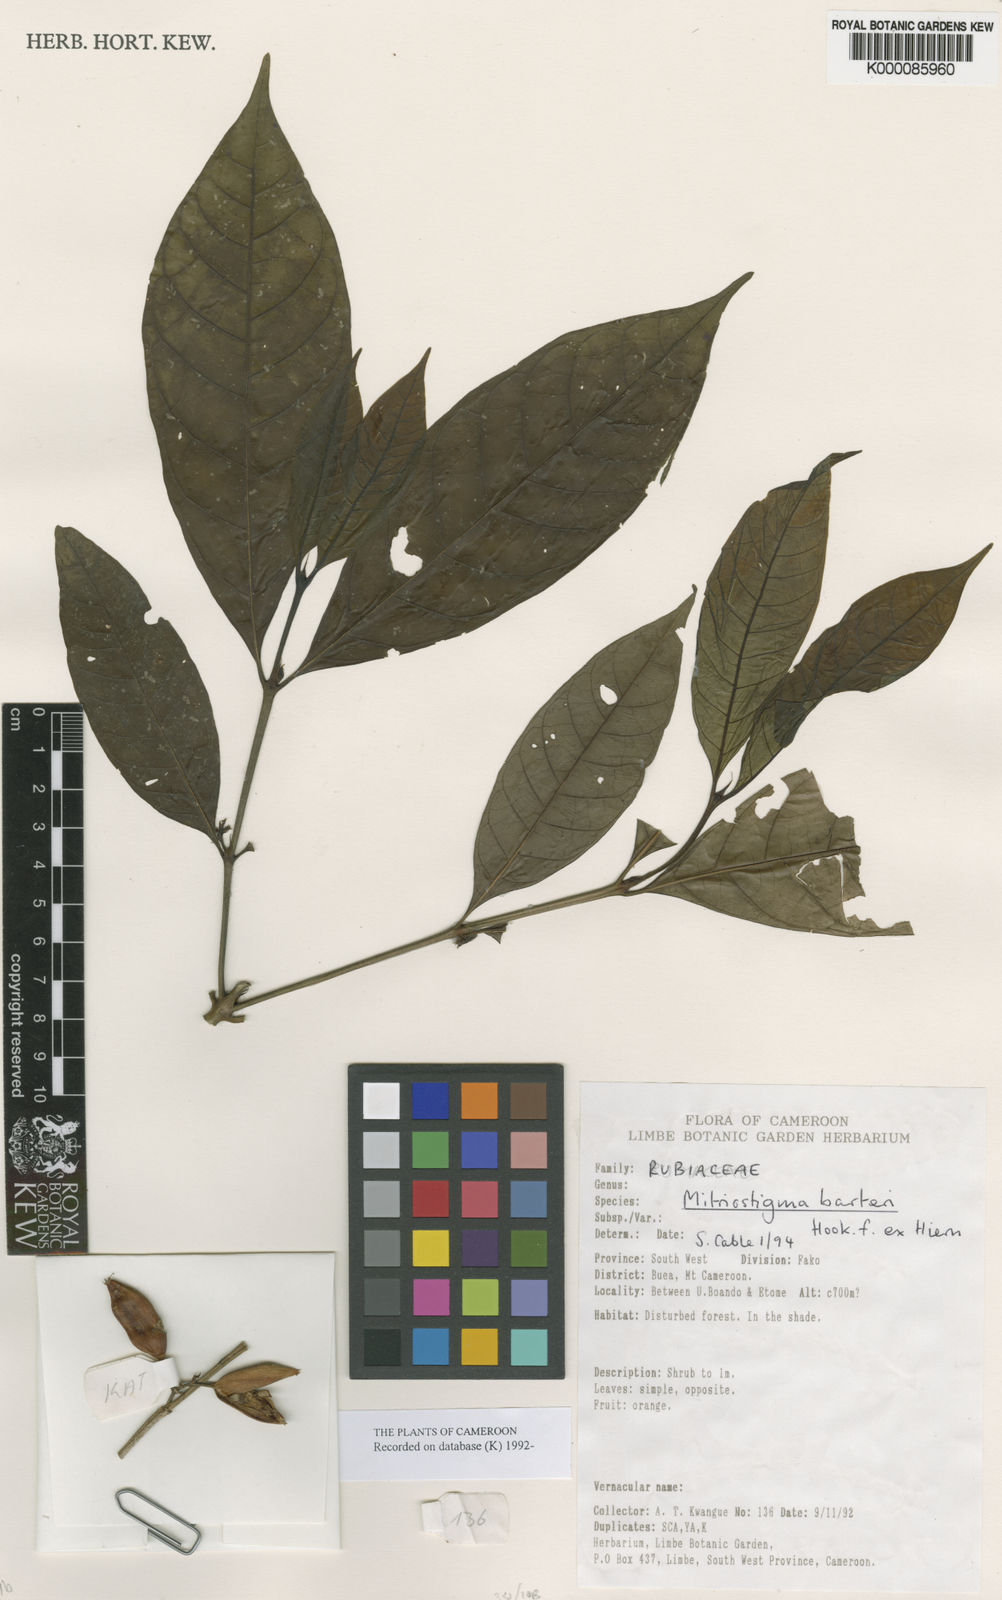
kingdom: Plantae
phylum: Tracheophyta
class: Magnoliopsida
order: Gentianales
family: Rubiaceae
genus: Mitriostigma
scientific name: Mitriostigma
